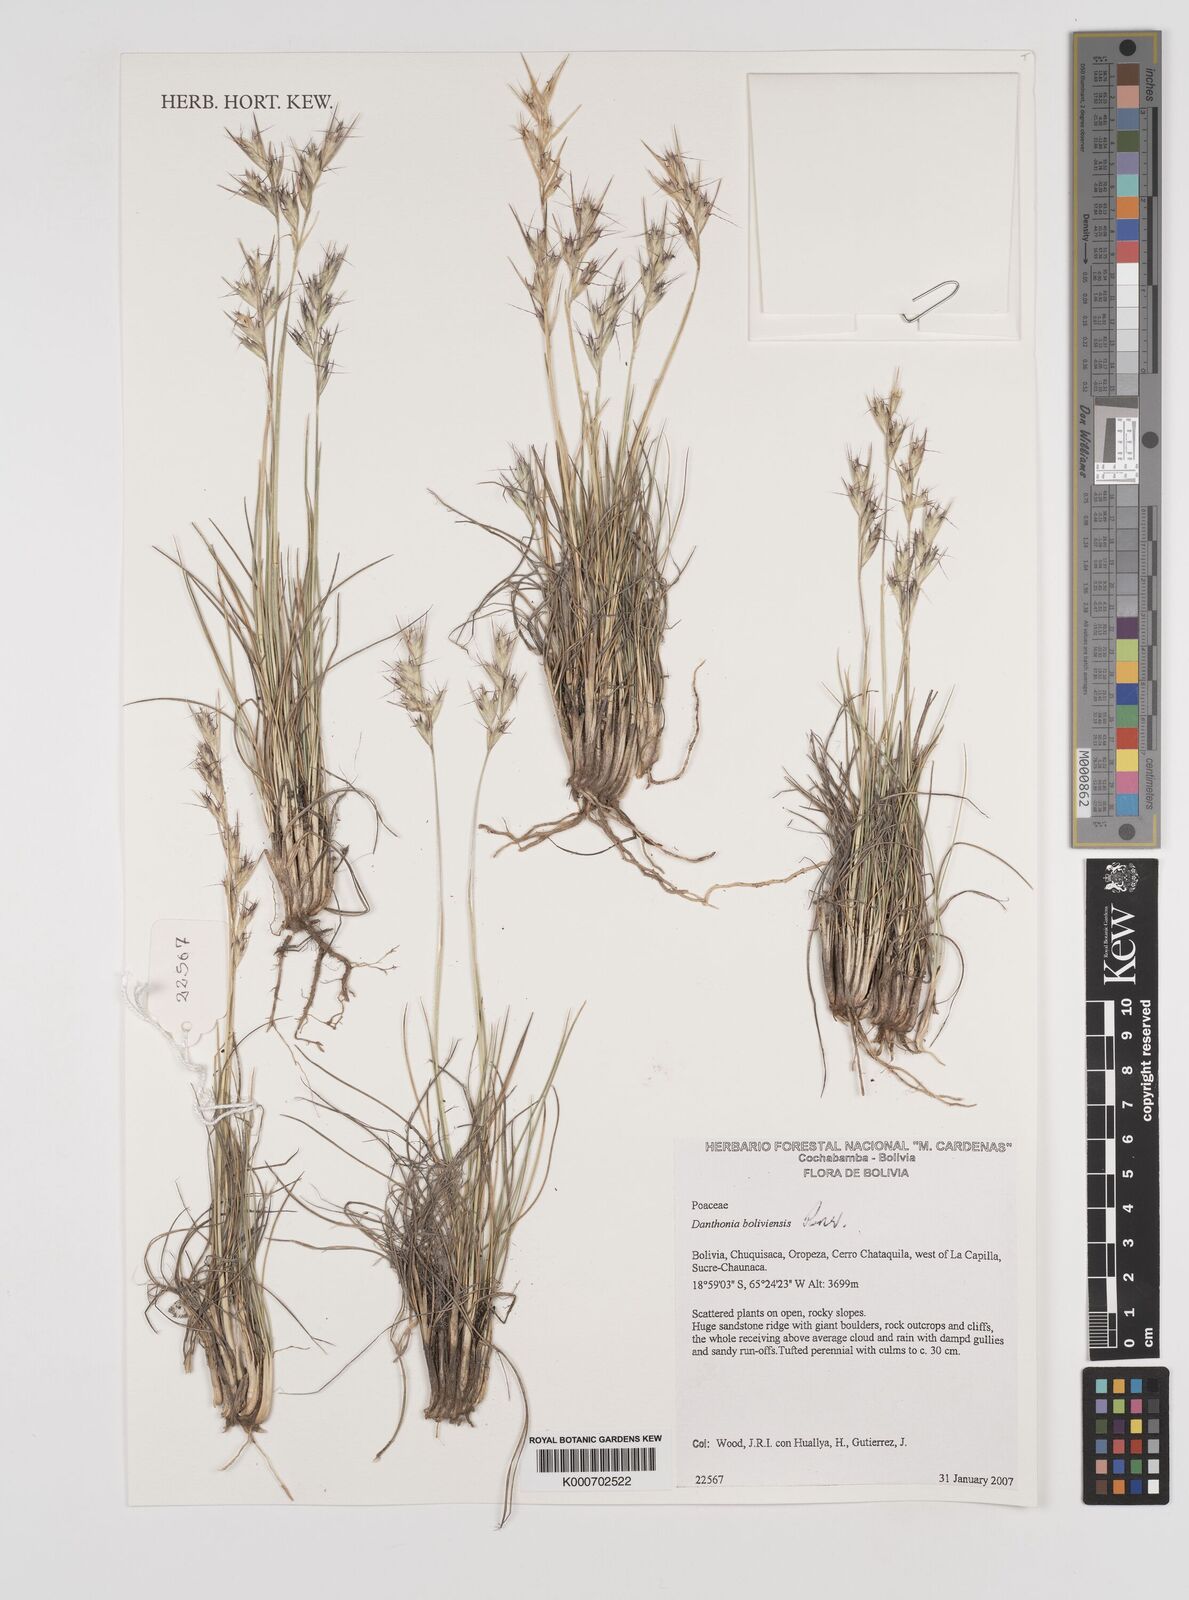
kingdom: Plantae
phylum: Tracheophyta
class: Liliopsida
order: Poales
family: Poaceae
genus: Danthonia
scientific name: Danthonia boliviensis
